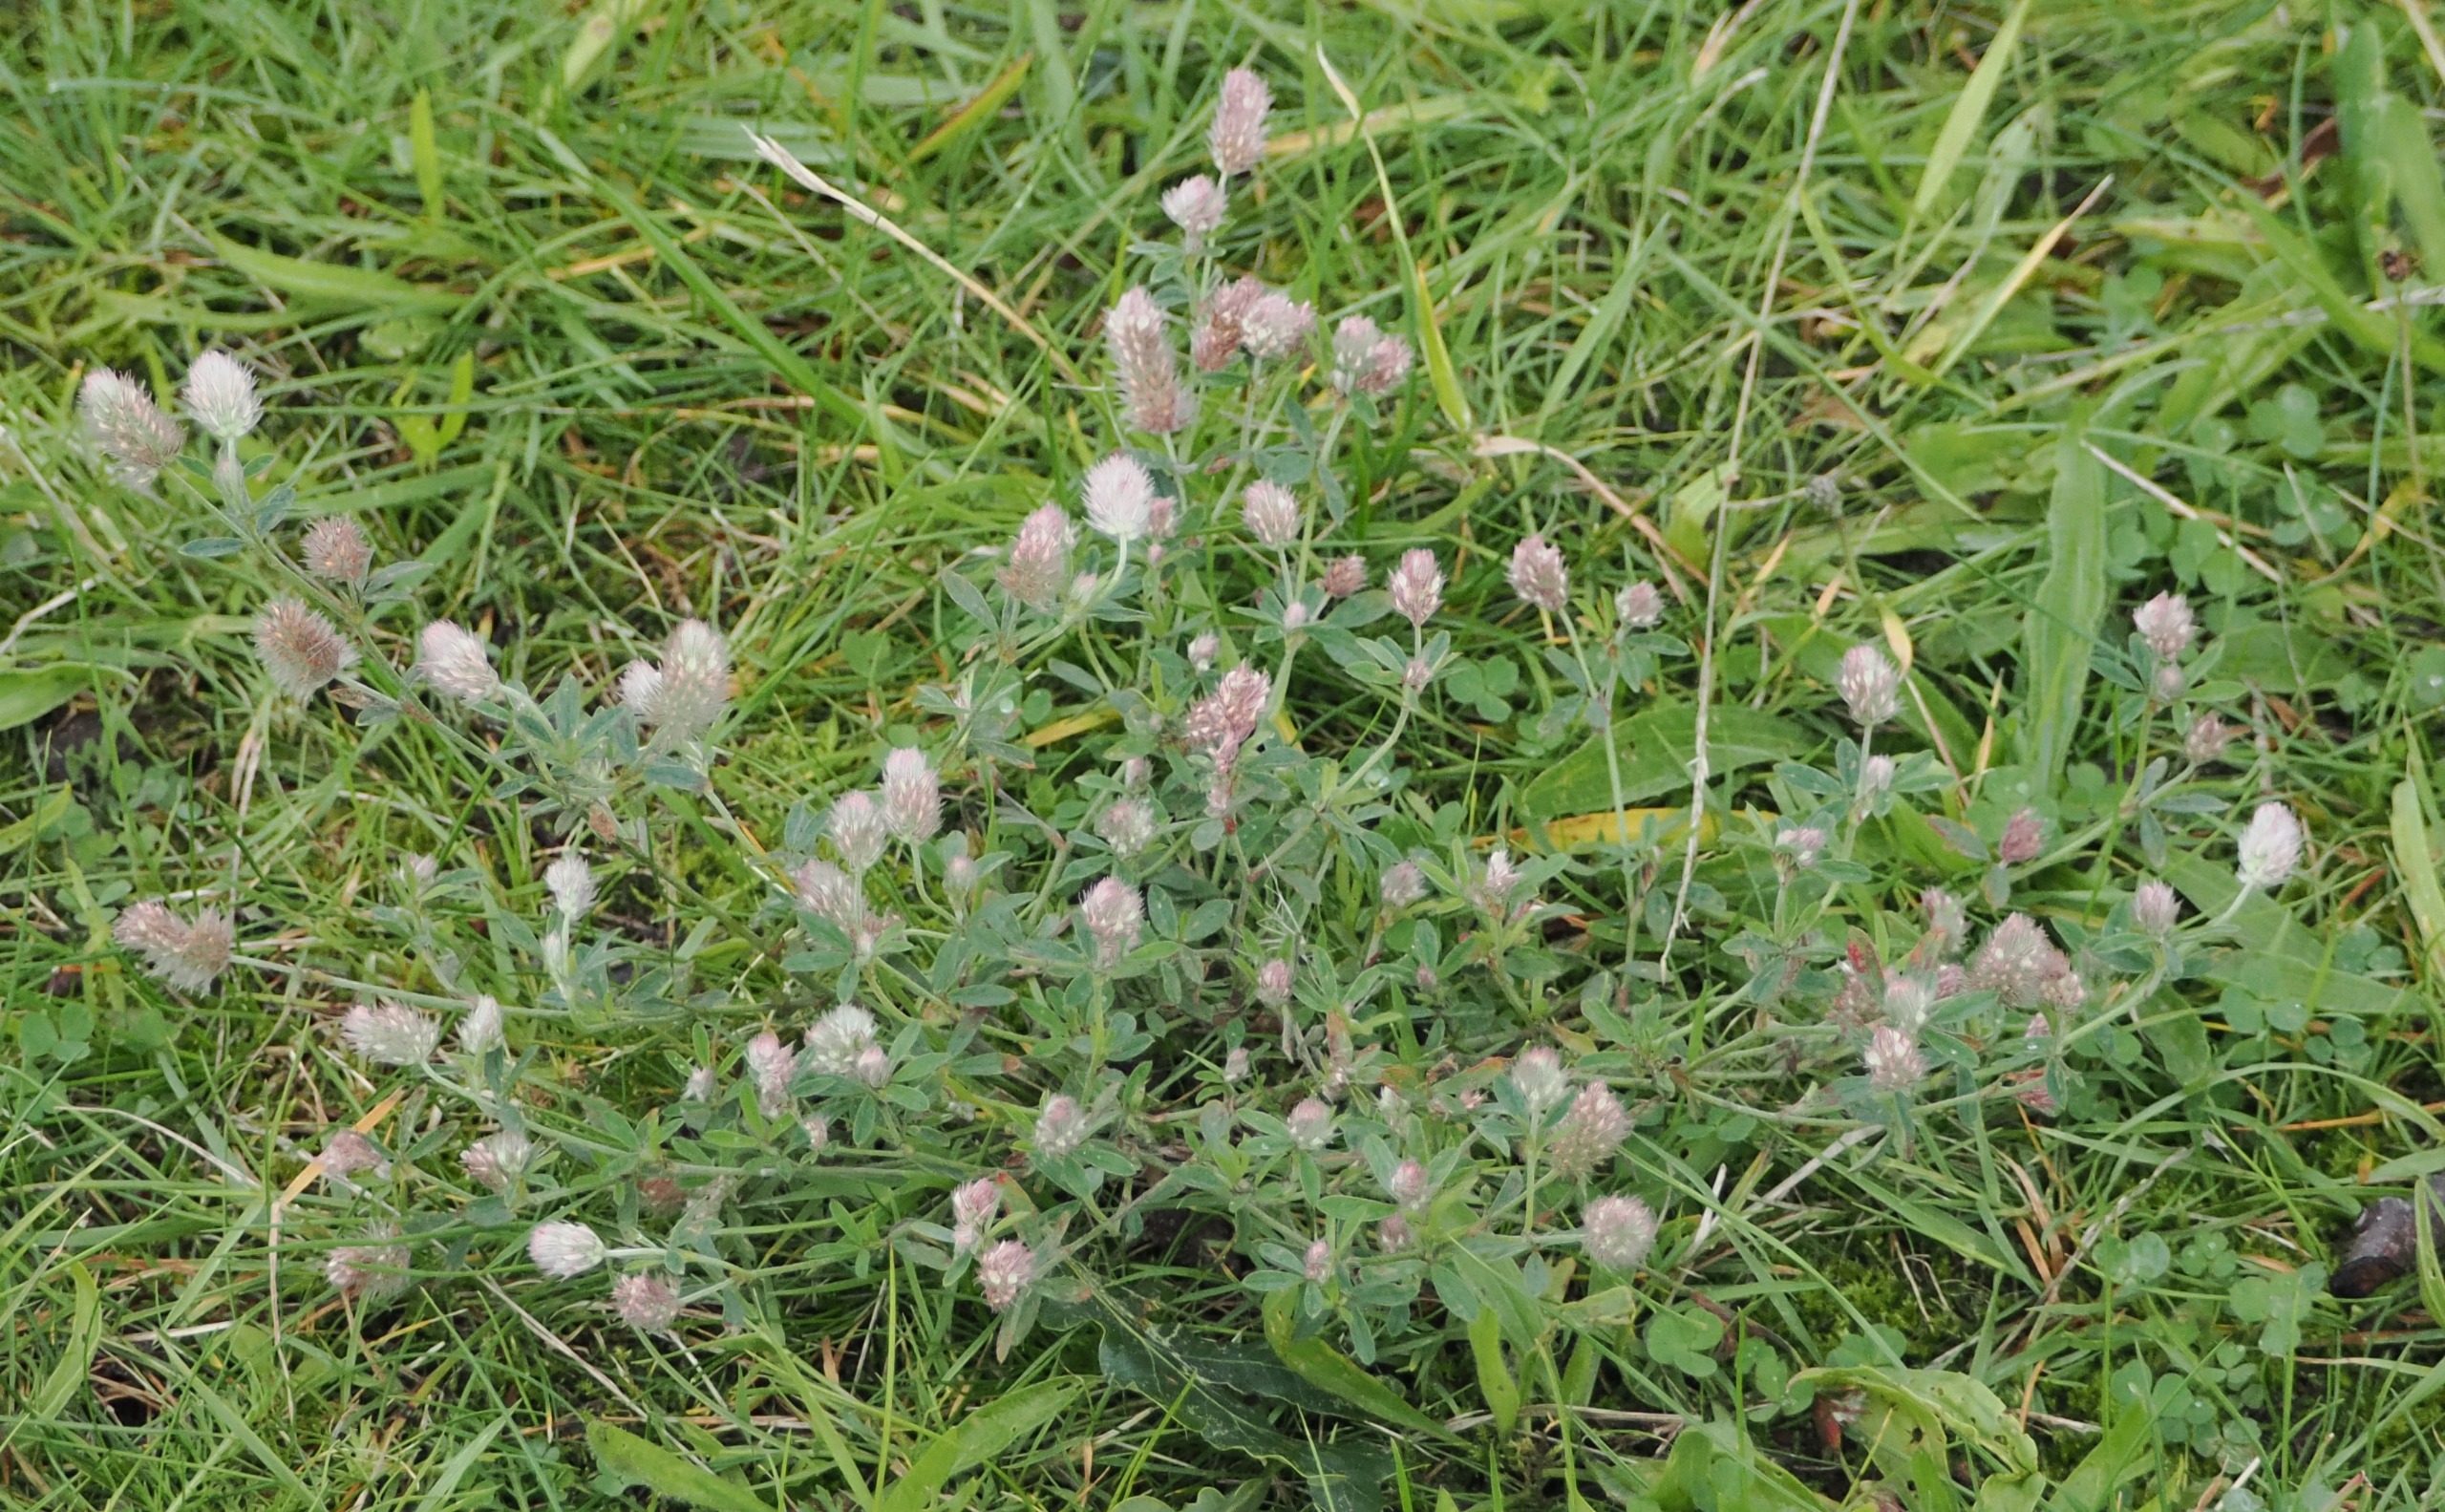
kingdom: Plantae
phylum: Tracheophyta
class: Magnoliopsida
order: Fabales
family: Fabaceae
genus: Trifolium
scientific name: Trifolium arvense
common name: Hare-kløver
